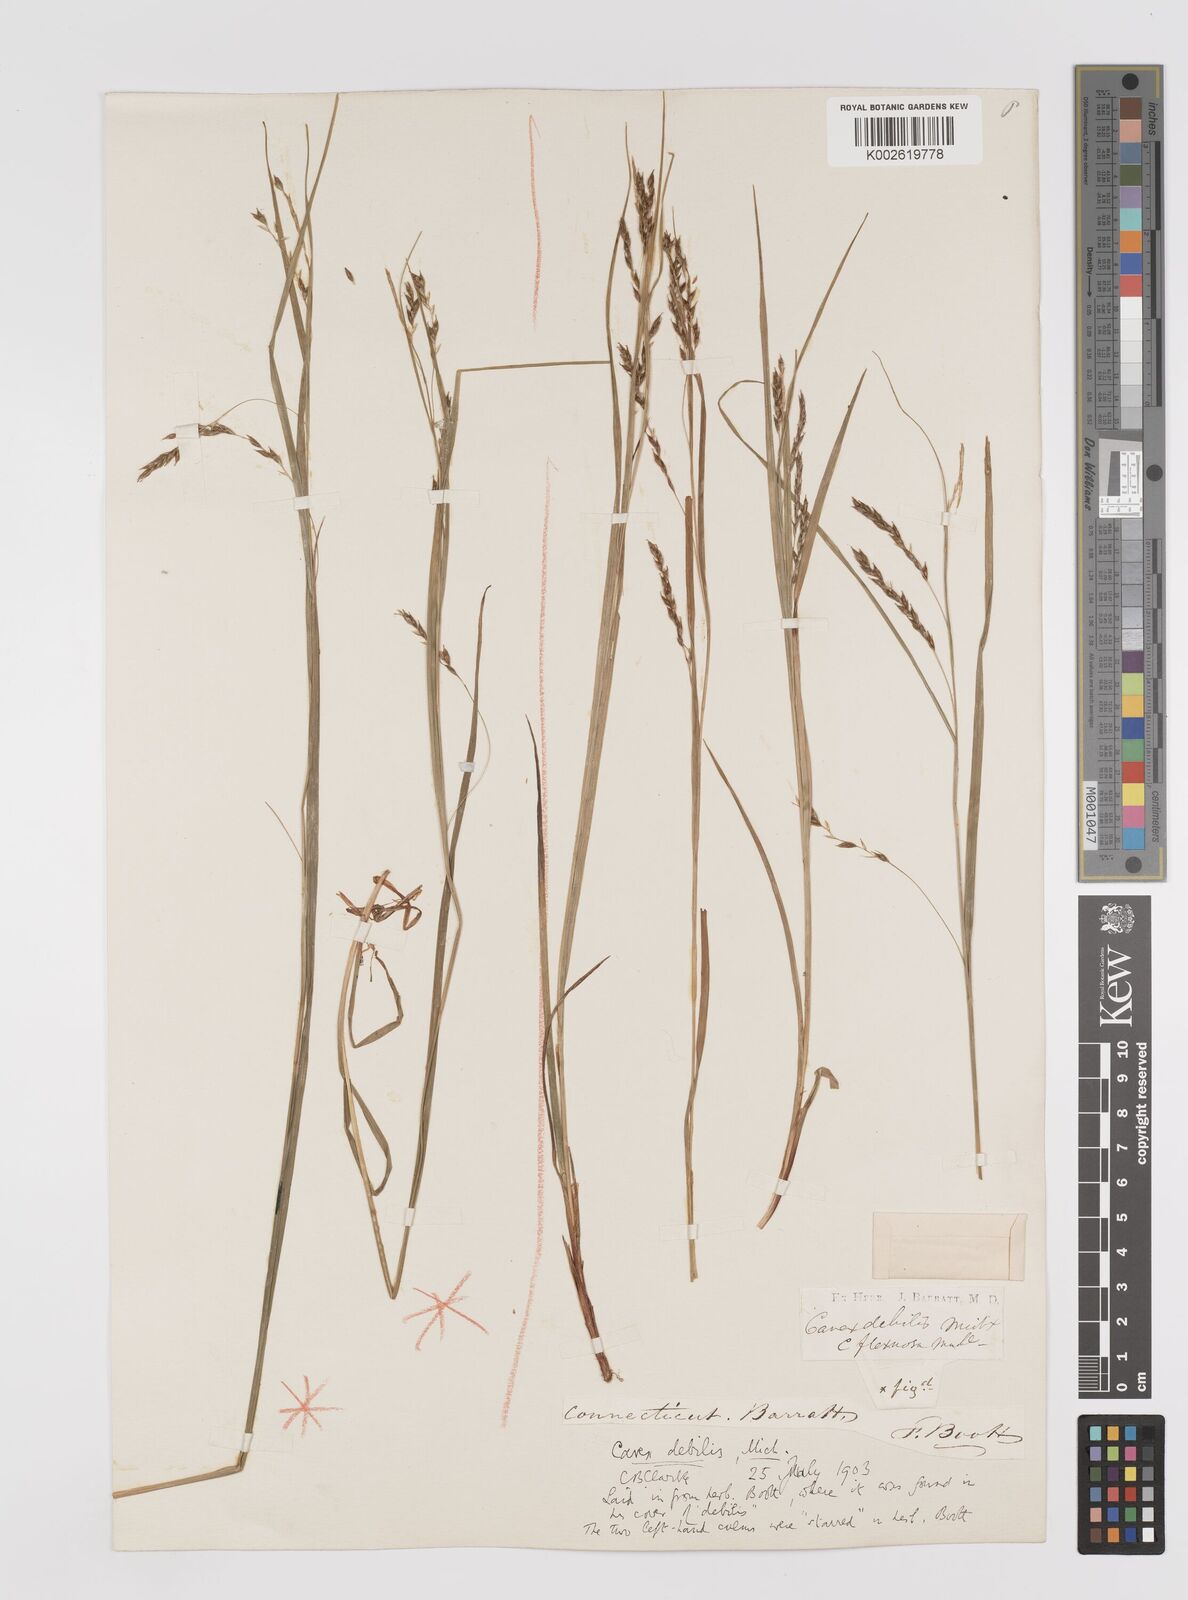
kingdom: Plantae
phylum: Tracheophyta
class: Liliopsida
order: Poales
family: Cyperaceae
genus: Carex
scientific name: Carex debilis
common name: White-edge sedge
